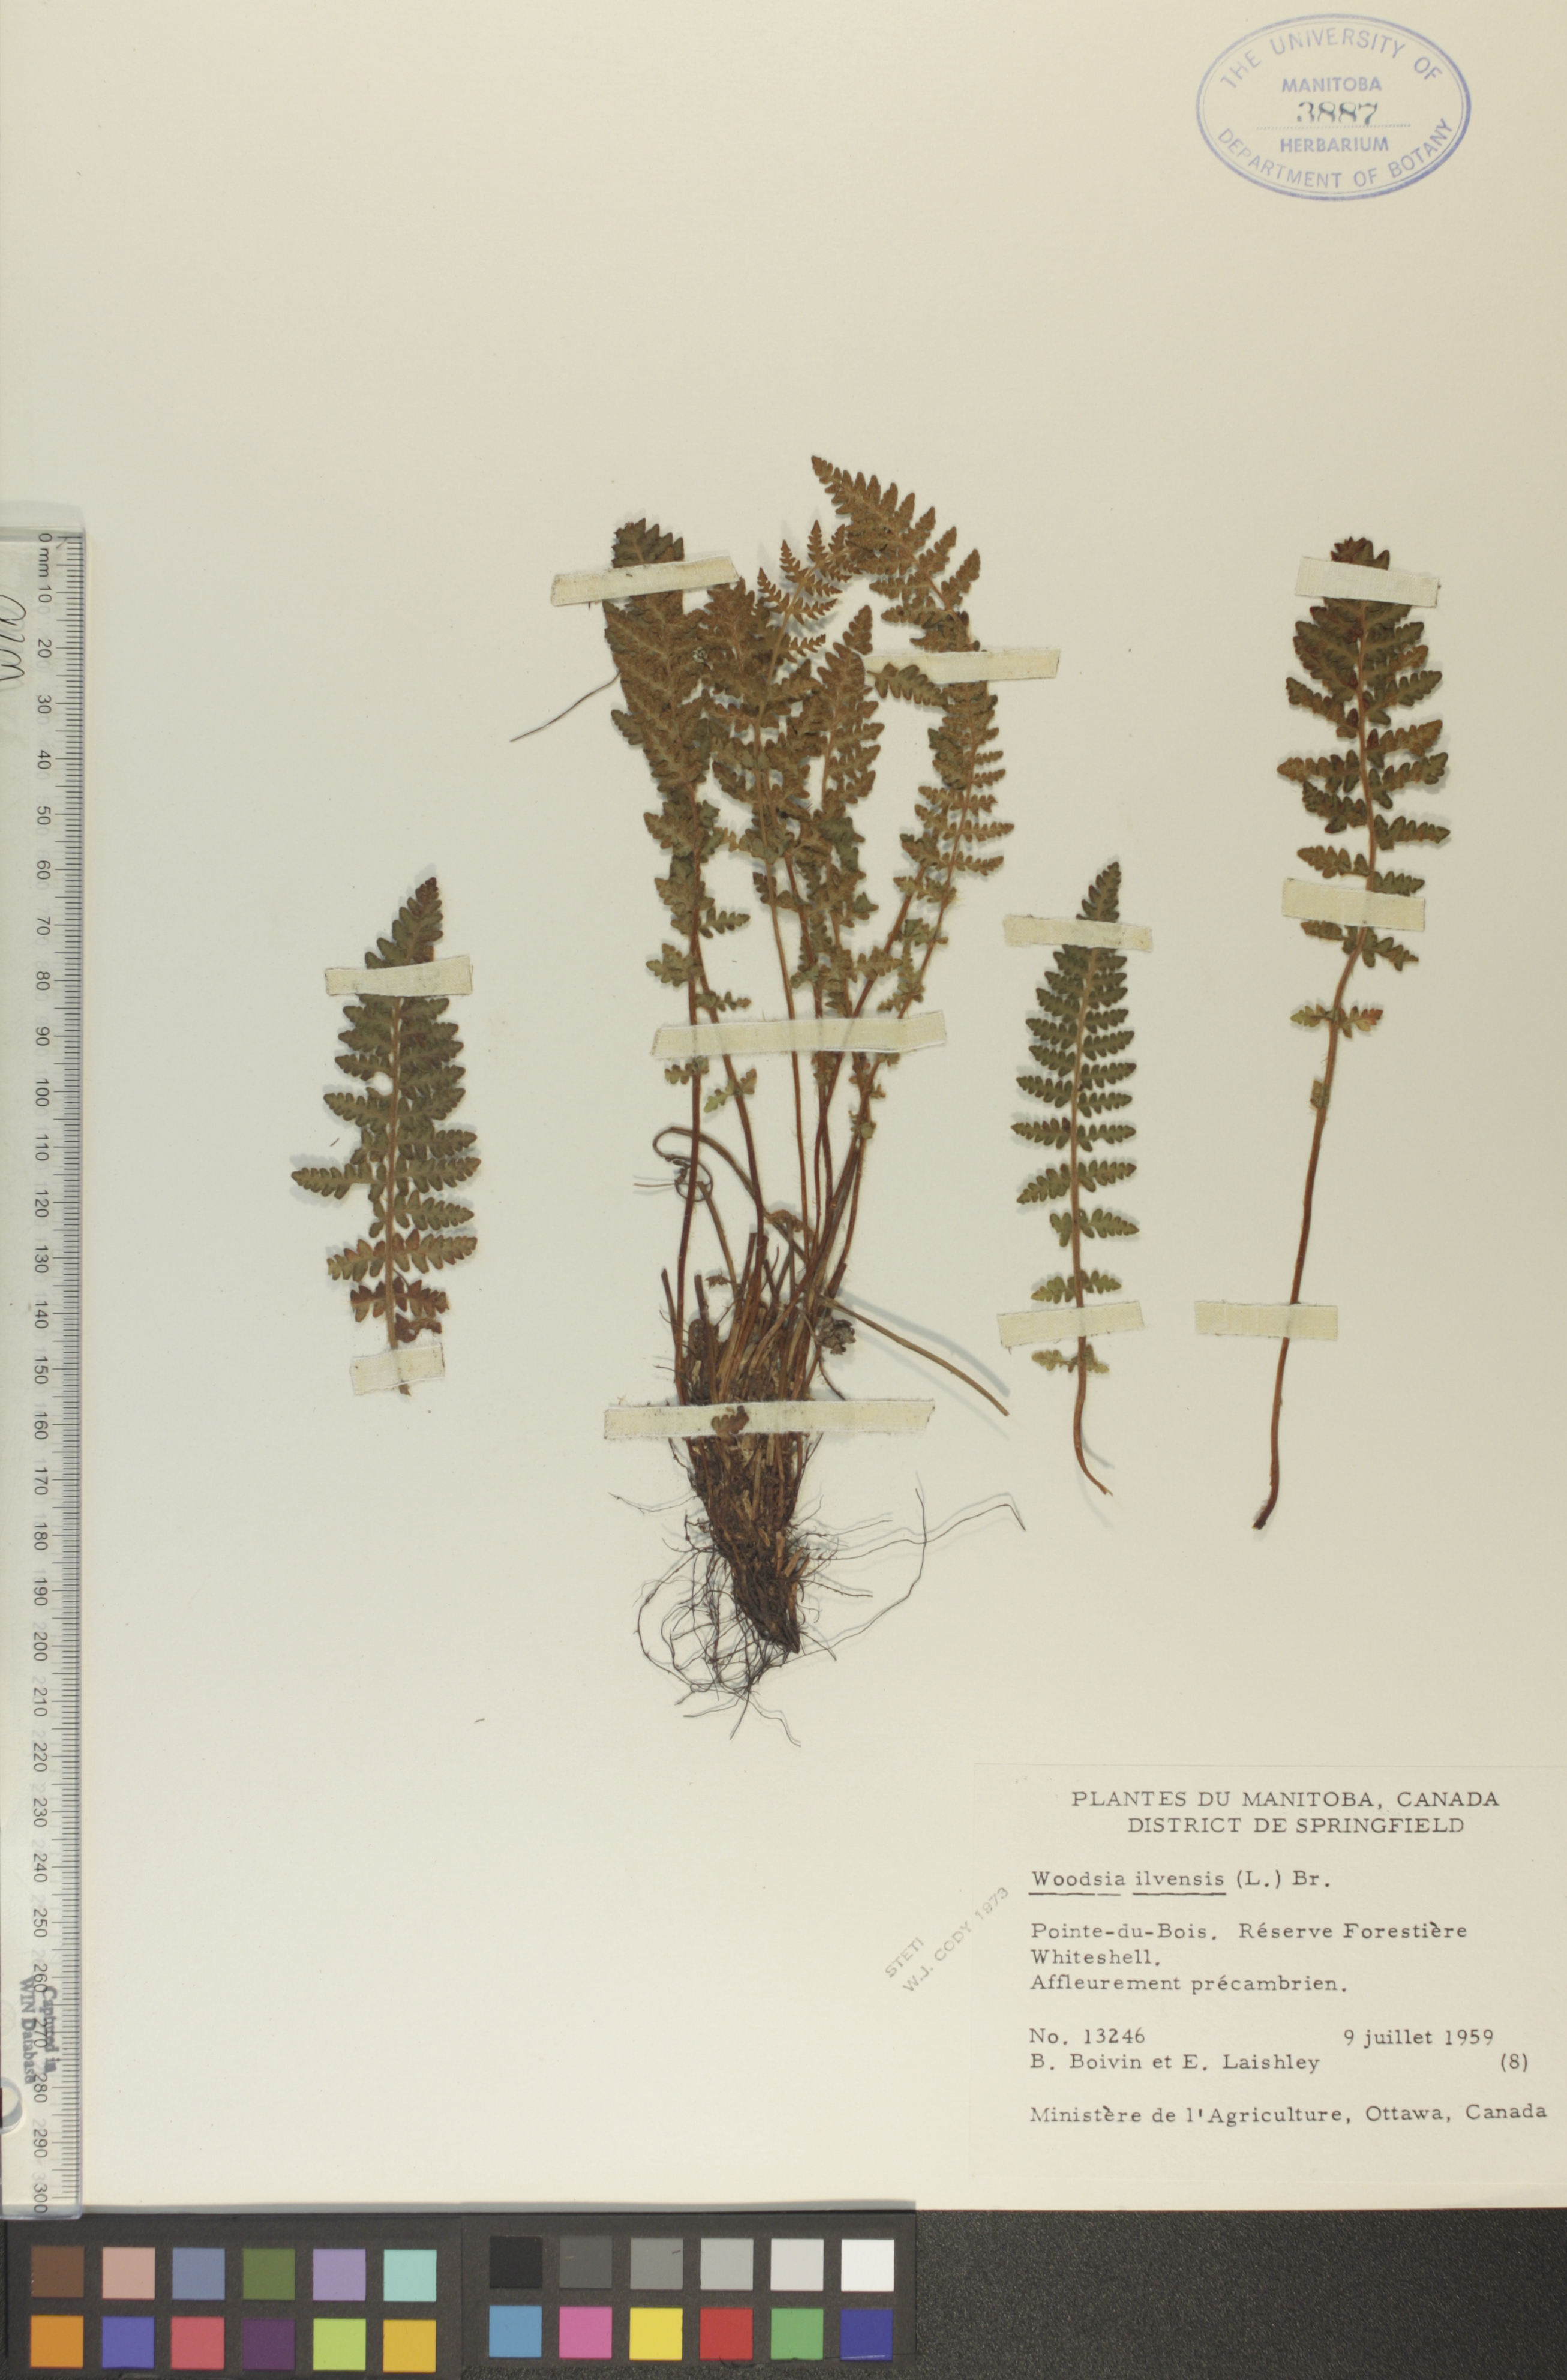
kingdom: Plantae
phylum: Tracheophyta
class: Polypodiopsida
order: Polypodiales
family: Woodsiaceae
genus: Woodsia
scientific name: Woodsia ilvensis
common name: Fragrant woodsia
